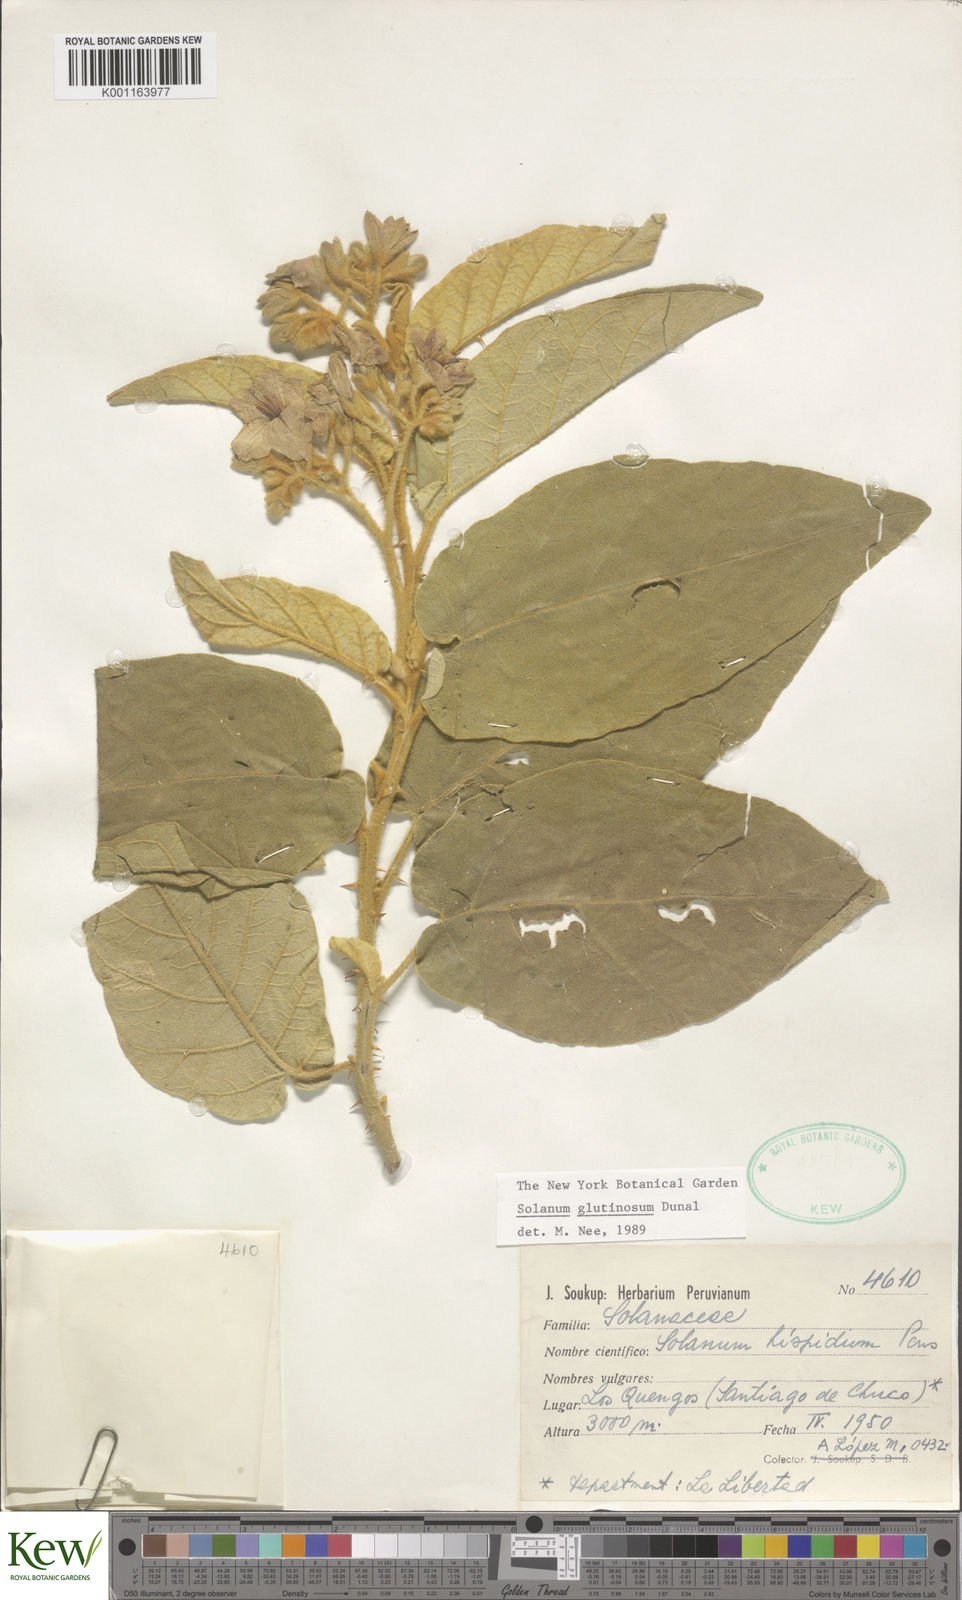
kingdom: Plantae
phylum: Tracheophyta
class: Magnoliopsida
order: Solanales
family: Solanaceae
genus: Solanum
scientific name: Solanum glutinosum
